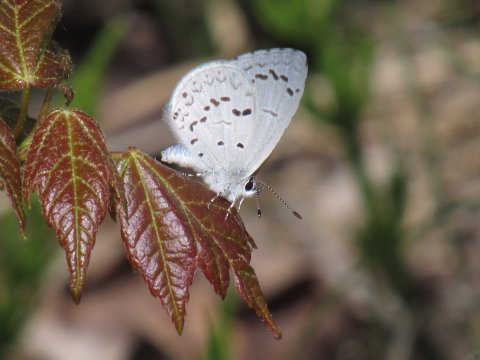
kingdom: Animalia
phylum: Arthropoda
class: Insecta
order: Lepidoptera
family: Lycaenidae
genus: Celastrina
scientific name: Celastrina serotina
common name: Cherry Gall Azure
